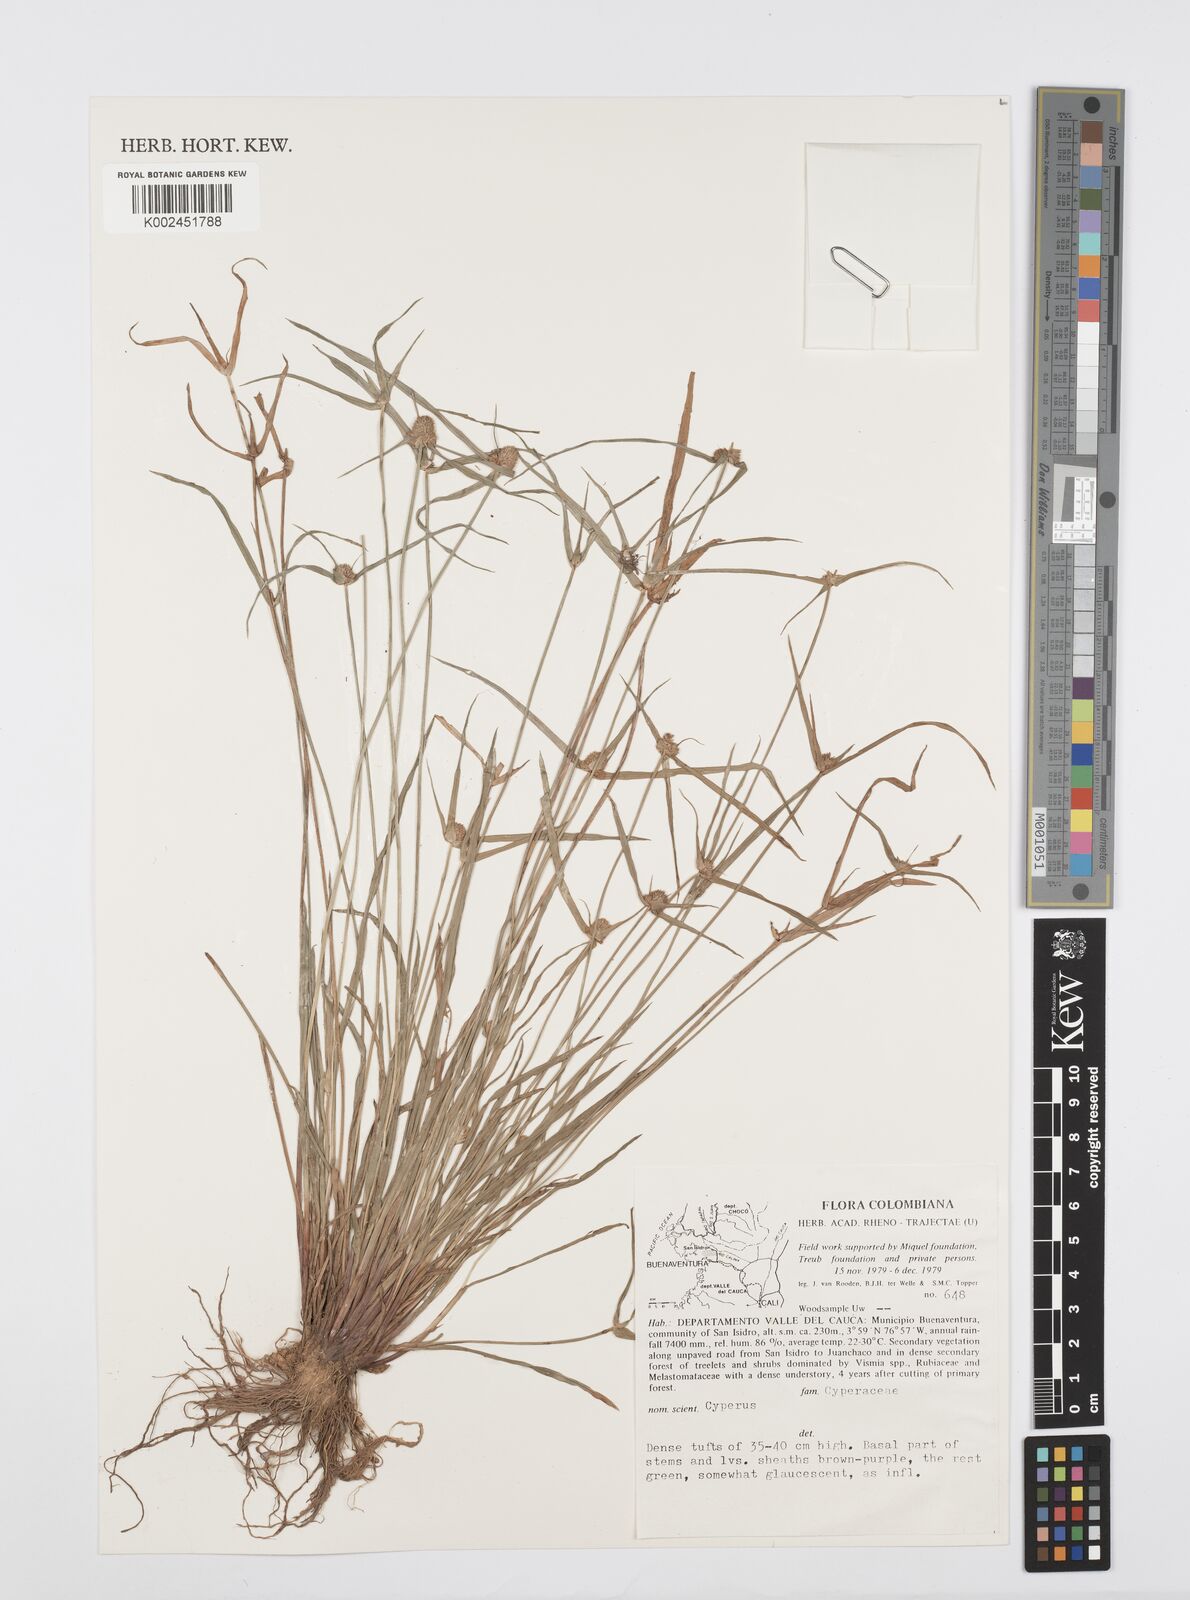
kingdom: Plantae
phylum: Tracheophyta
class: Liliopsida
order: Poales
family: Cyperaceae
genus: Cyperus
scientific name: Cyperus brevifolius
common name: Globe kyllinga
